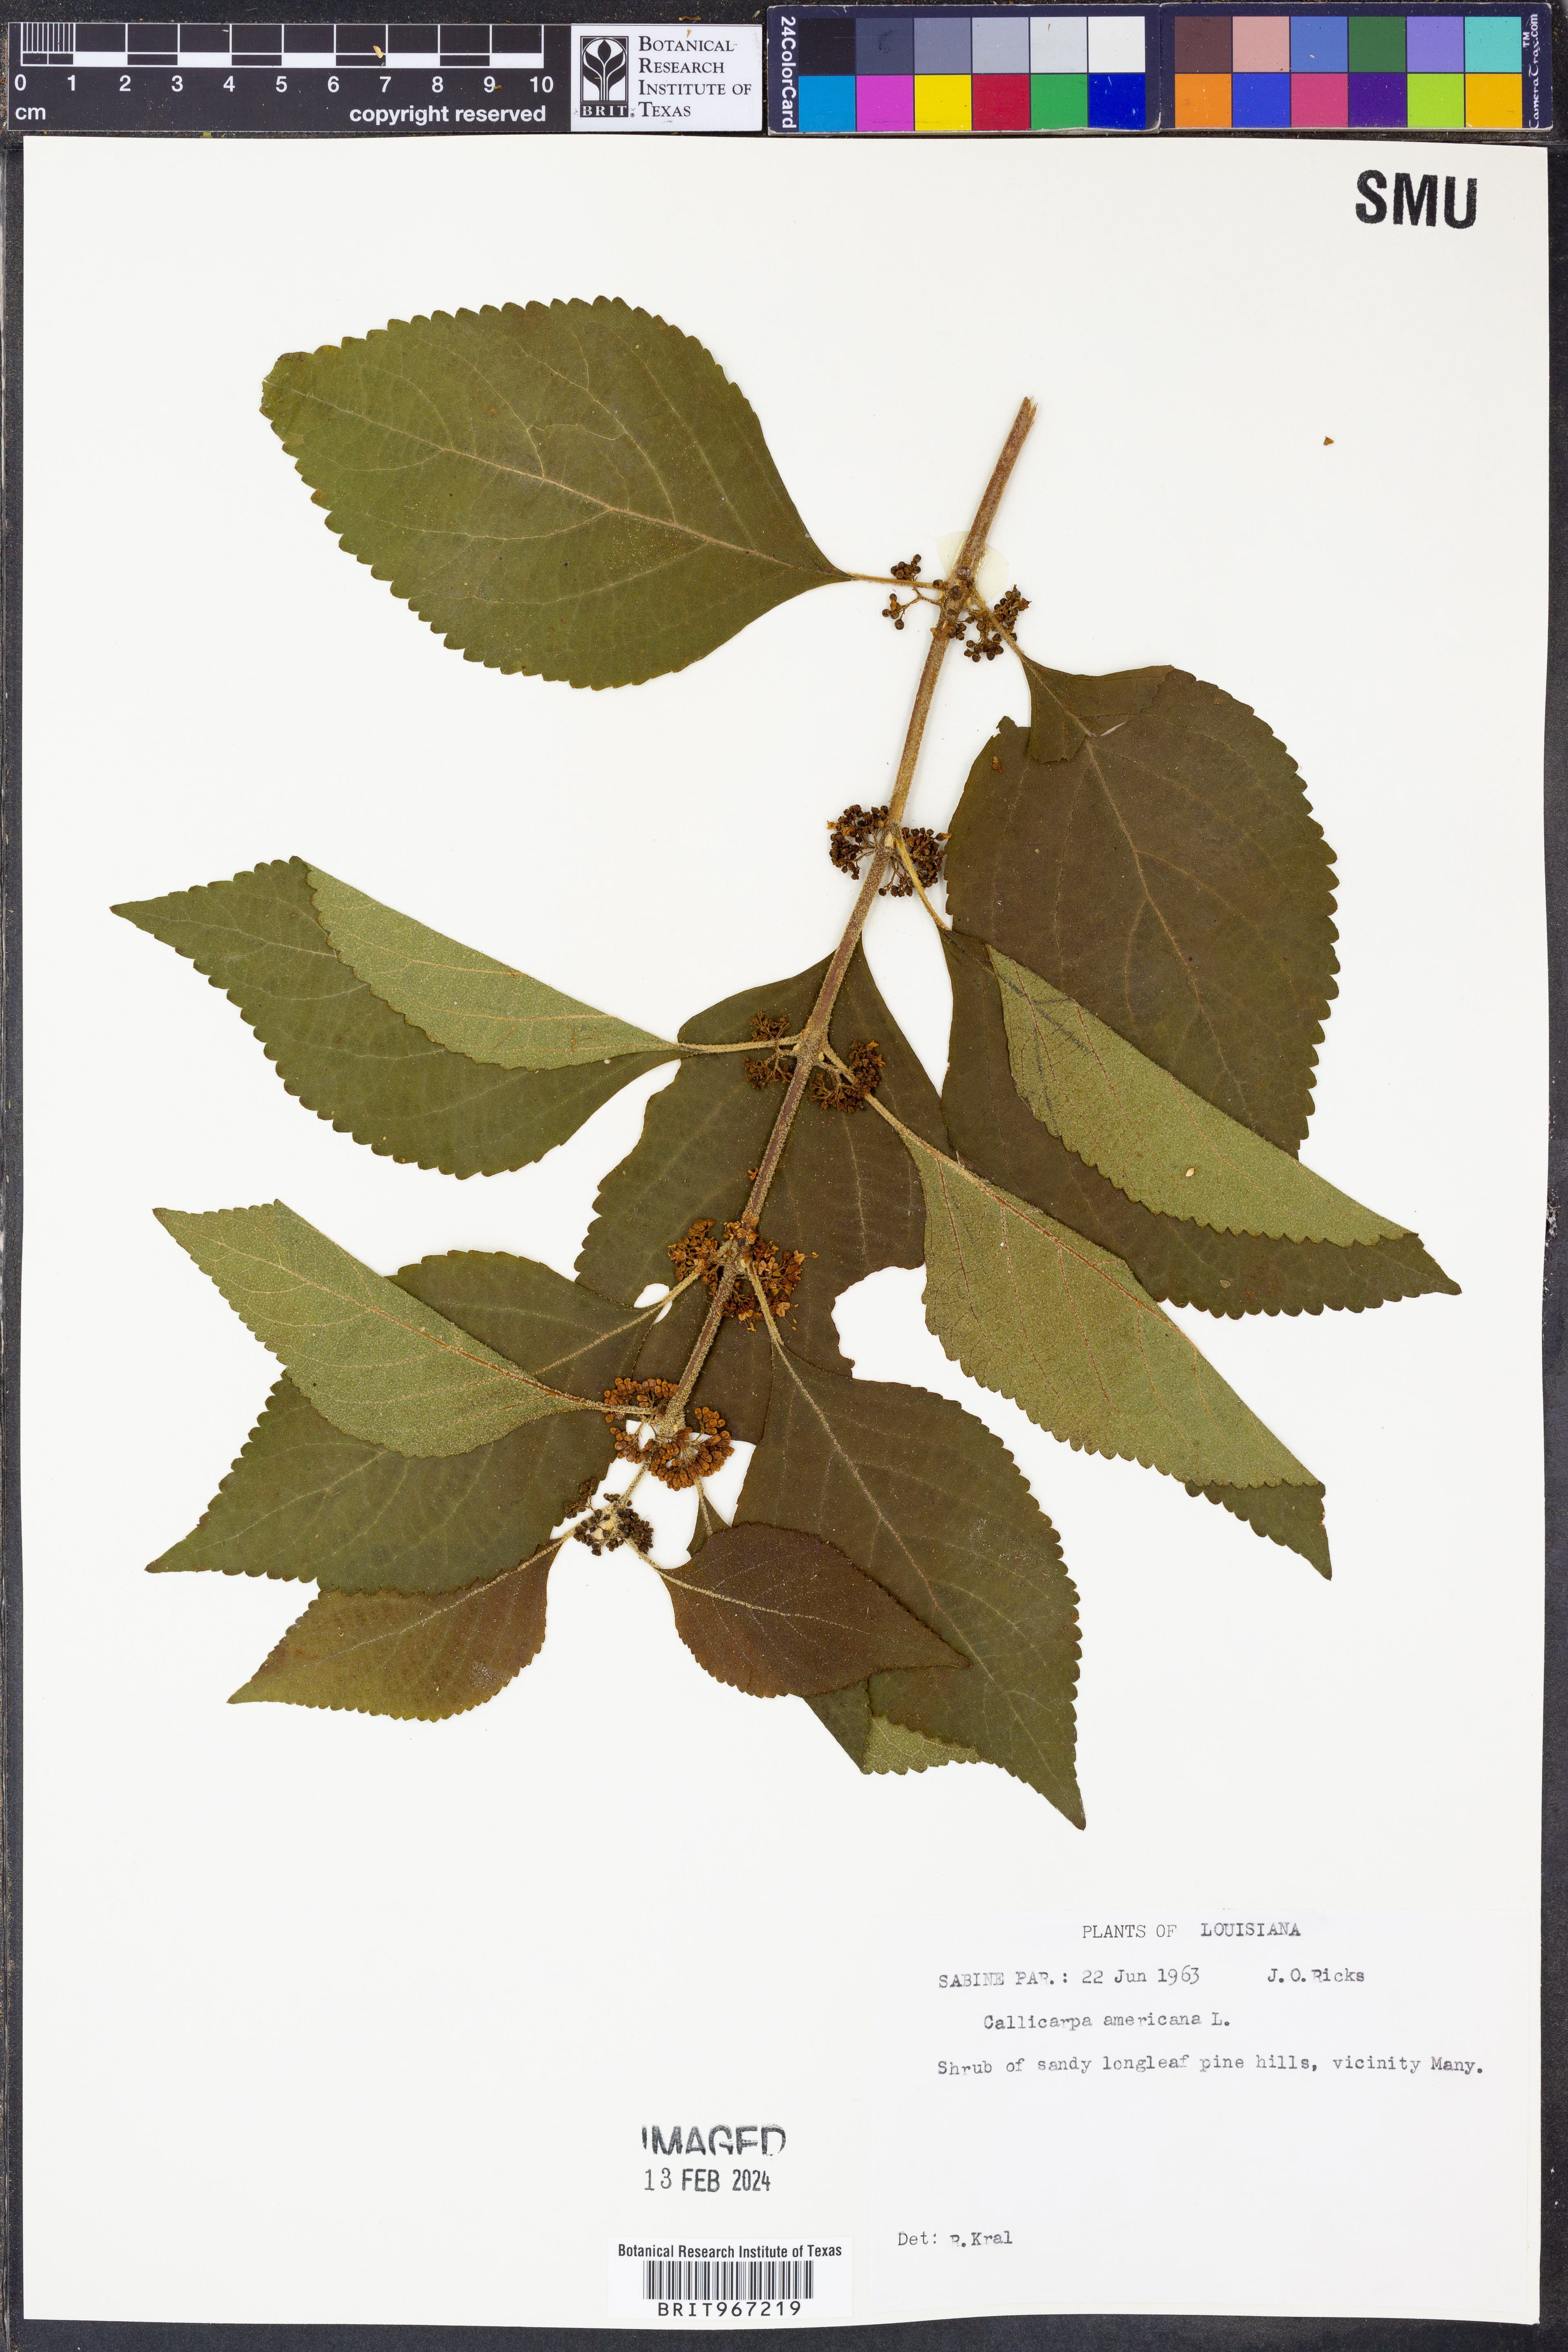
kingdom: Plantae
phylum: Tracheophyta
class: Magnoliopsida
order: Lamiales
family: Lamiaceae
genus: Callicarpa
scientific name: Callicarpa americana
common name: American beautyberry
